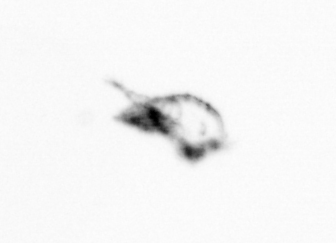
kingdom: Animalia
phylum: Arthropoda
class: Copepoda
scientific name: Copepoda
